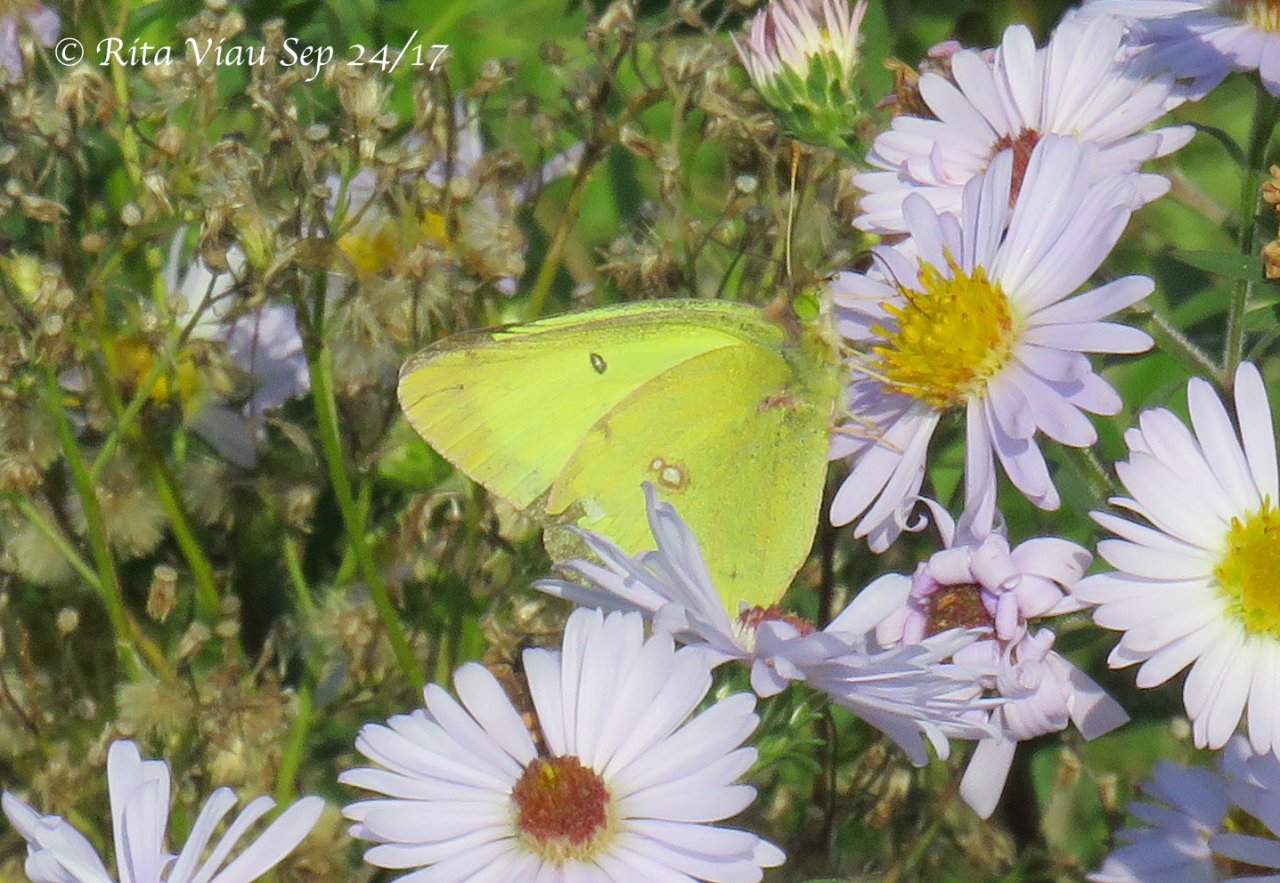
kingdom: Animalia
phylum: Arthropoda
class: Insecta
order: Lepidoptera
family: Pieridae
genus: Colias
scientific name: Colias philodice
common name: Clouded Sulphur
